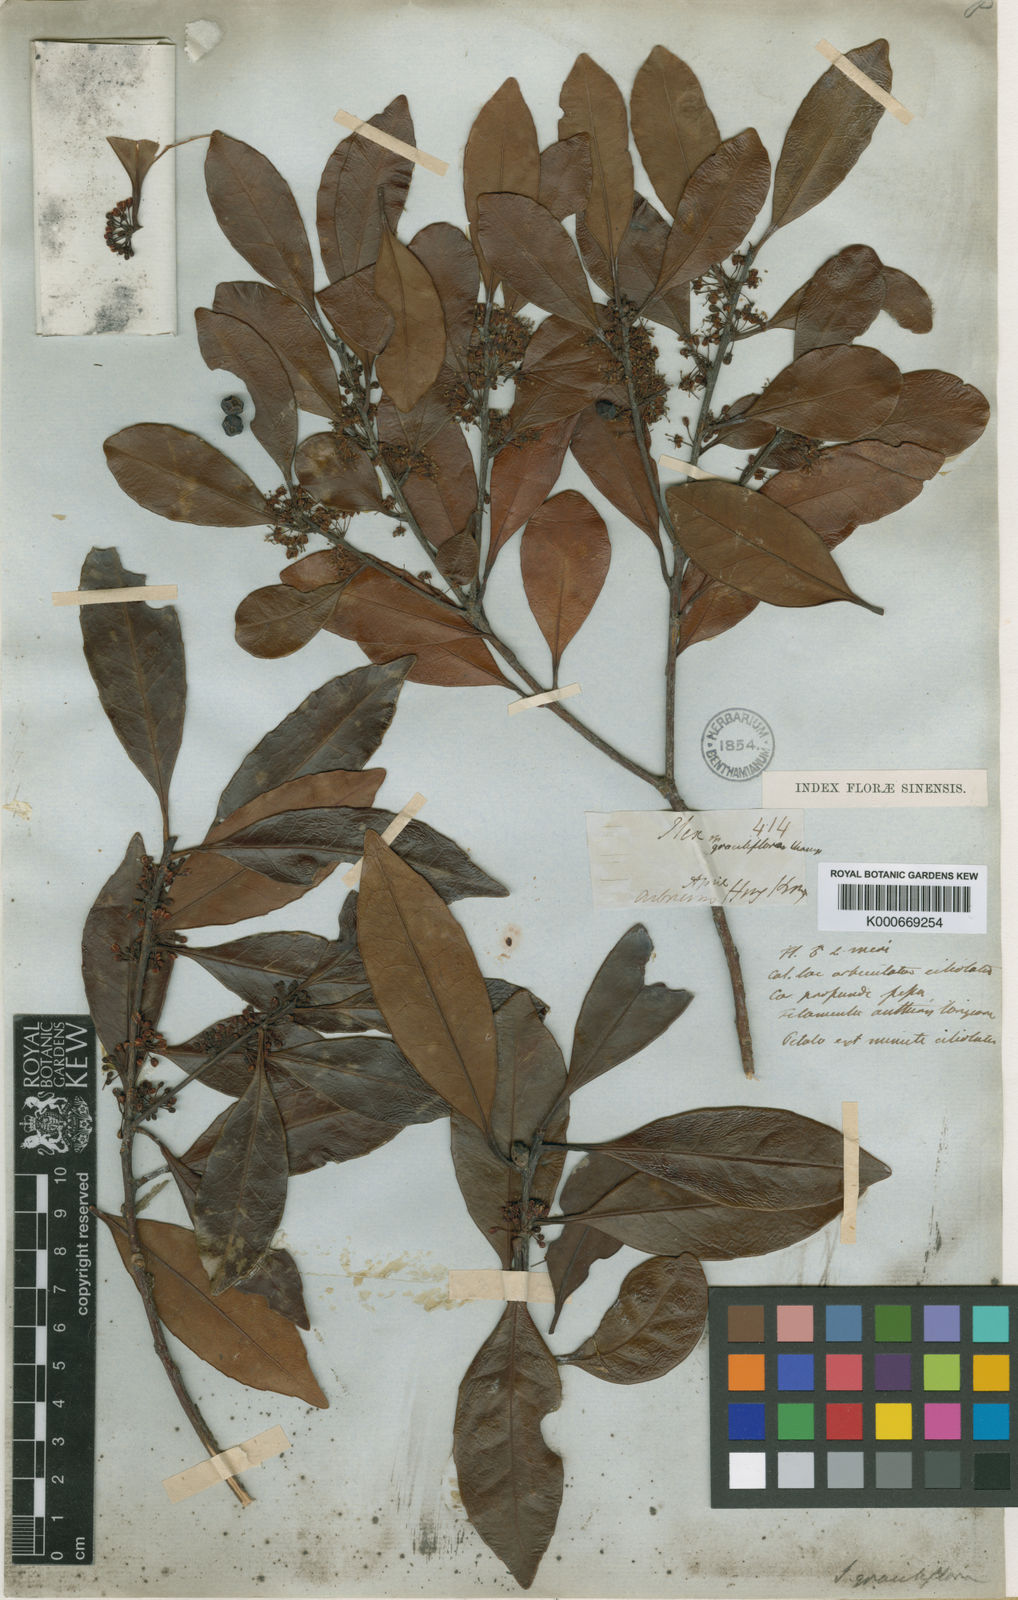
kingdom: Plantae
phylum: Tracheophyta
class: Magnoliopsida
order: Aquifoliales
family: Aquifoliaceae
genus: Ilex
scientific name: Ilex graciliflora
